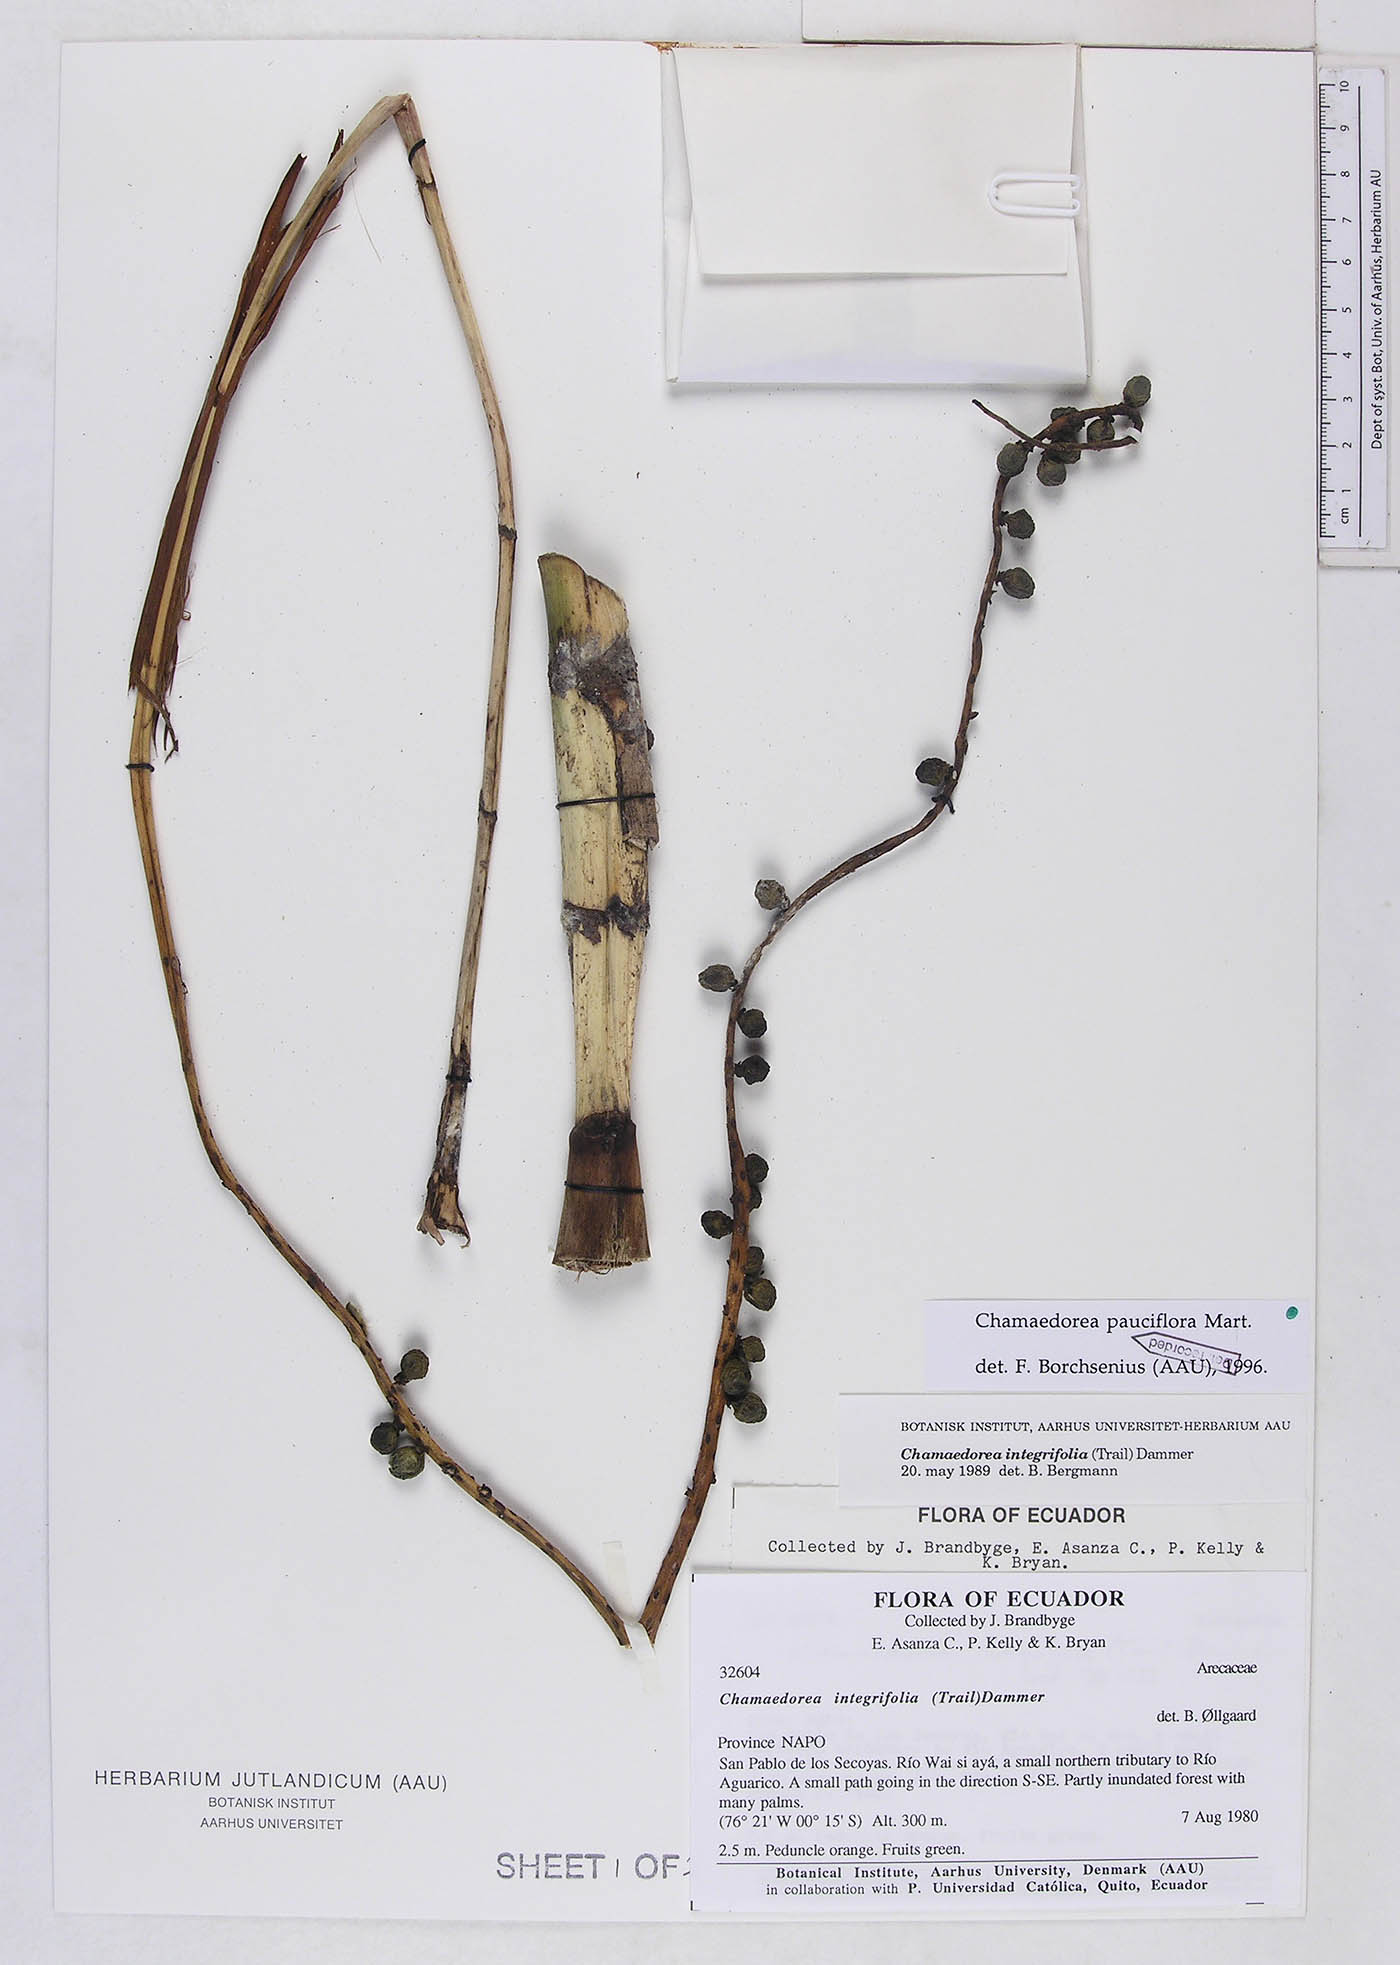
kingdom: Plantae
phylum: Tracheophyta
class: Liliopsida
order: Arecales
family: Arecaceae
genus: Chamaedorea
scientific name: Chamaedorea pauciflora
